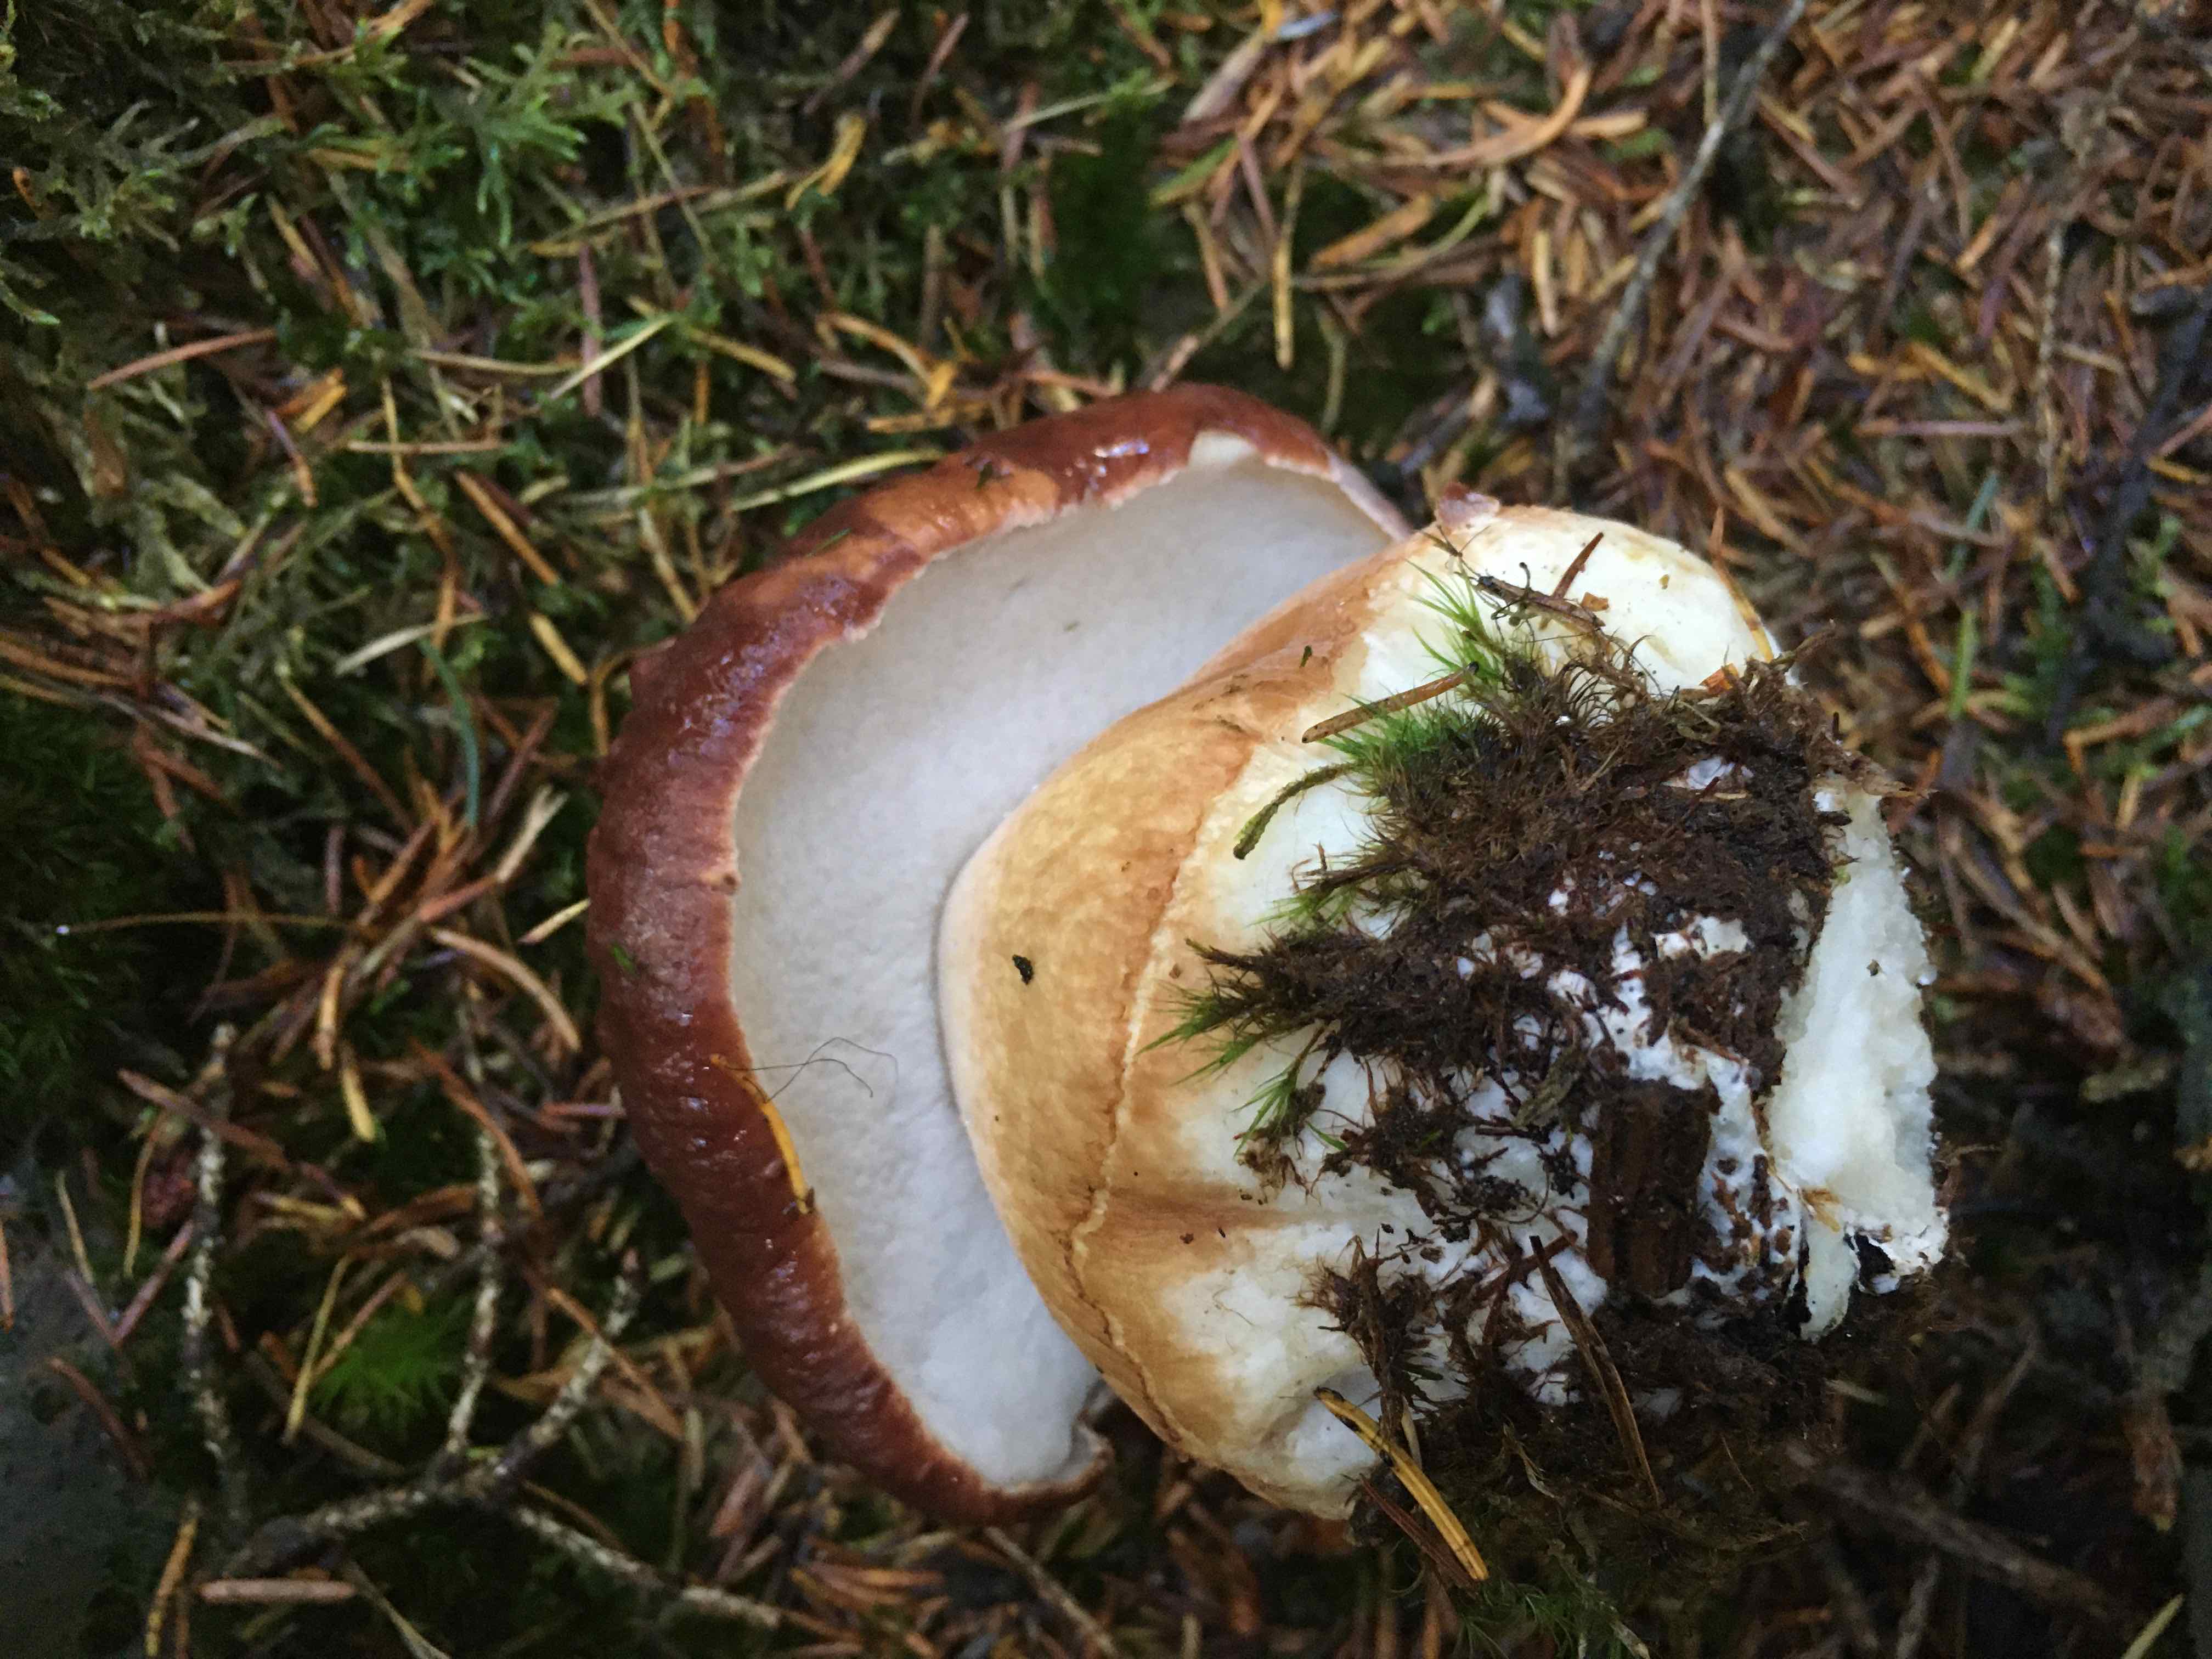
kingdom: Fungi
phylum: Basidiomycota
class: Agaricomycetes
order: Boletales
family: Boletaceae
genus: Boletus
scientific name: Boletus pinophilus
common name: rødbrun rørhat
